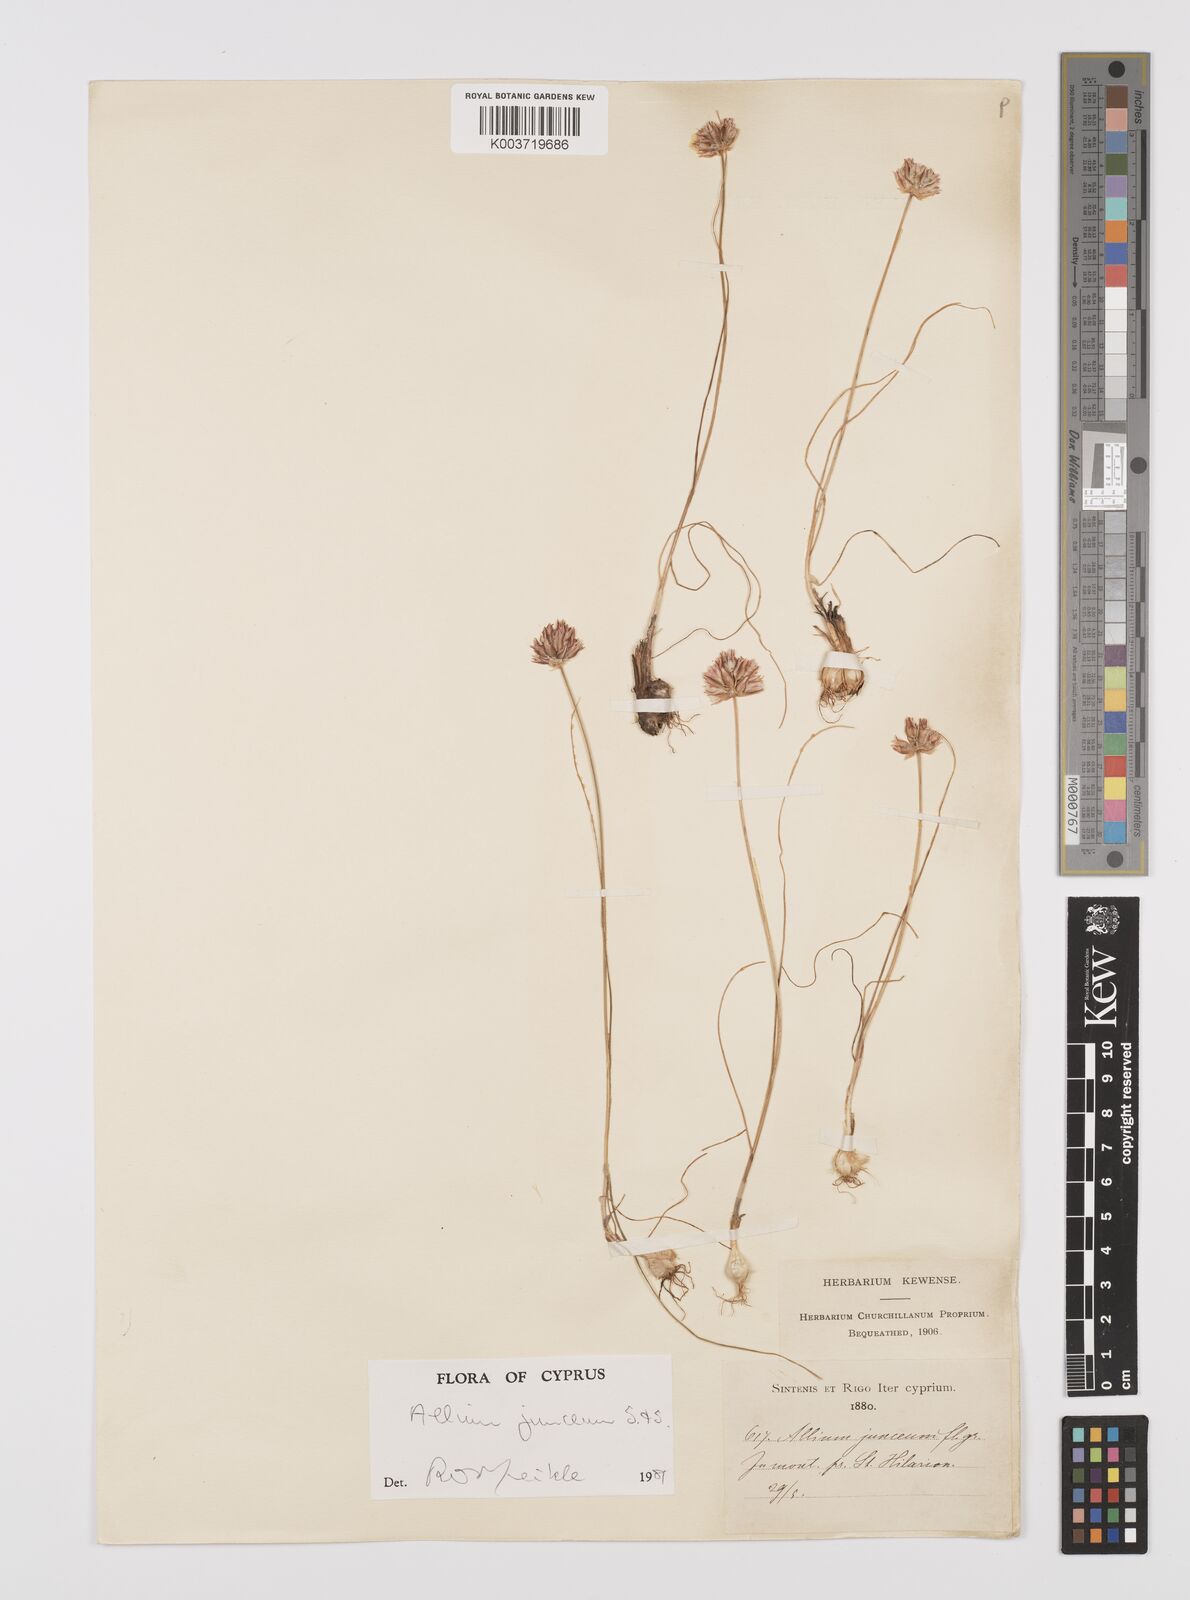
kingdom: Plantae
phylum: Tracheophyta
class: Liliopsida
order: Asparagales
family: Amaryllidaceae
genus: Allium
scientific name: Allium junceum
